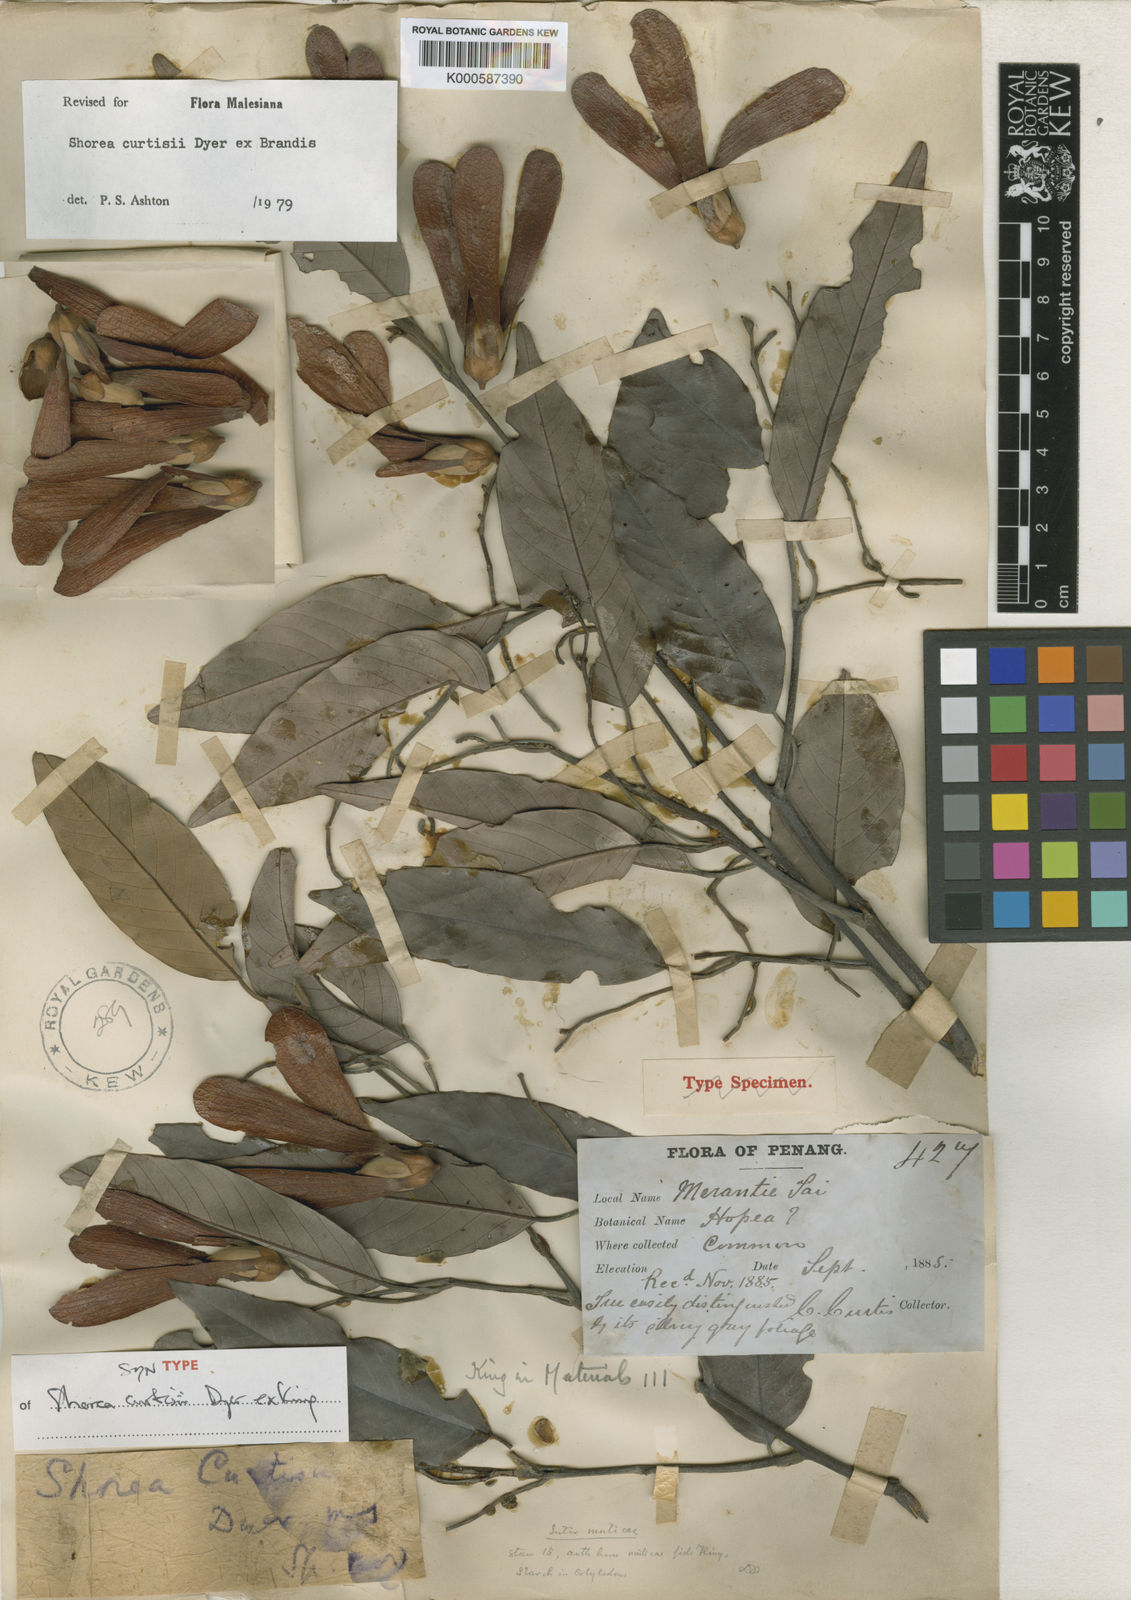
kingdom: Plantae
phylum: Tracheophyta
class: Magnoliopsida
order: Malvales
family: Dipterocarpaceae
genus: Shorea
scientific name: Shorea curtisii
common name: Dark red meranti
